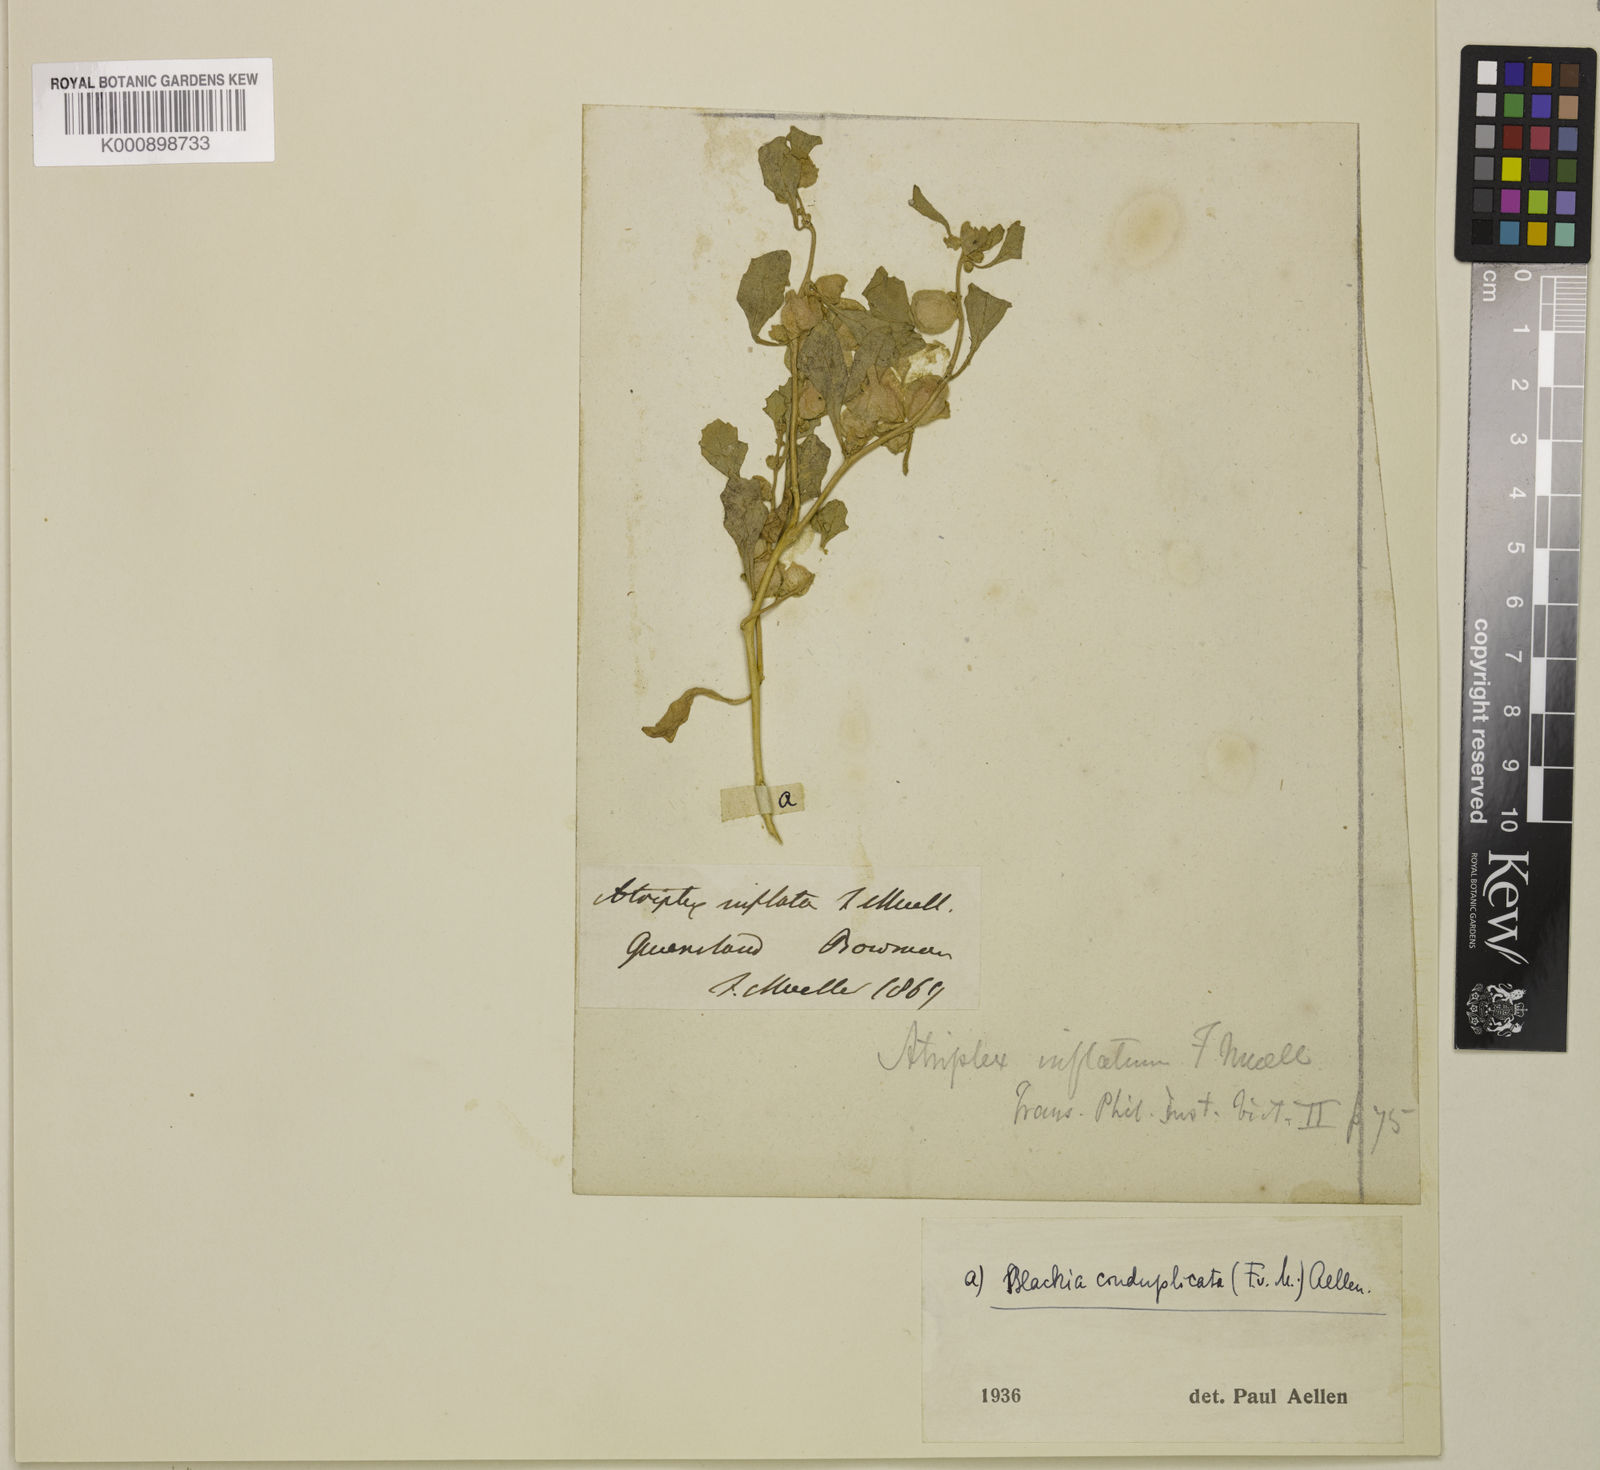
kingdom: Plantae
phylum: Tracheophyta
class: Magnoliopsida
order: Caryophyllales
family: Amaranthaceae
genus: Atriplex
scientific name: Atriplex lindleyi
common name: Lindley's saltbush
